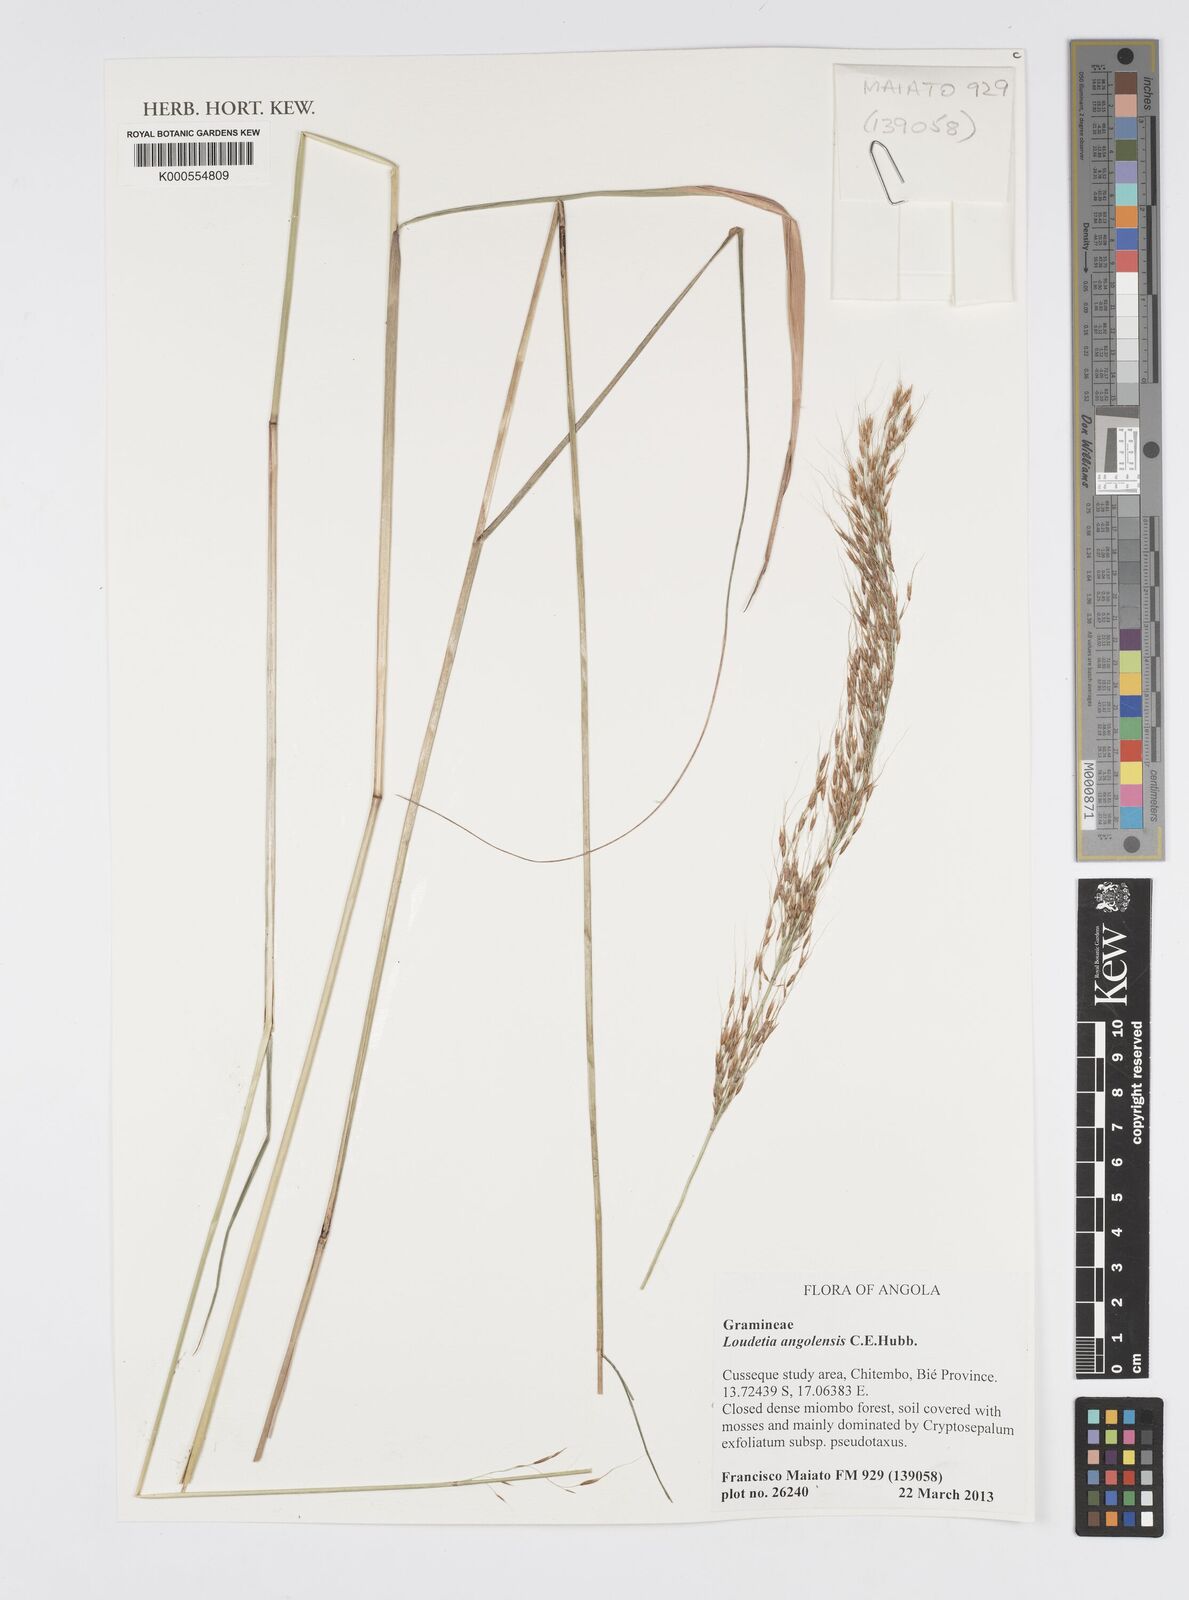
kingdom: Plantae
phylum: Tracheophyta
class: Liliopsida
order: Poales
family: Poaceae
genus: Loudetia
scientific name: Loudetia angolensis
